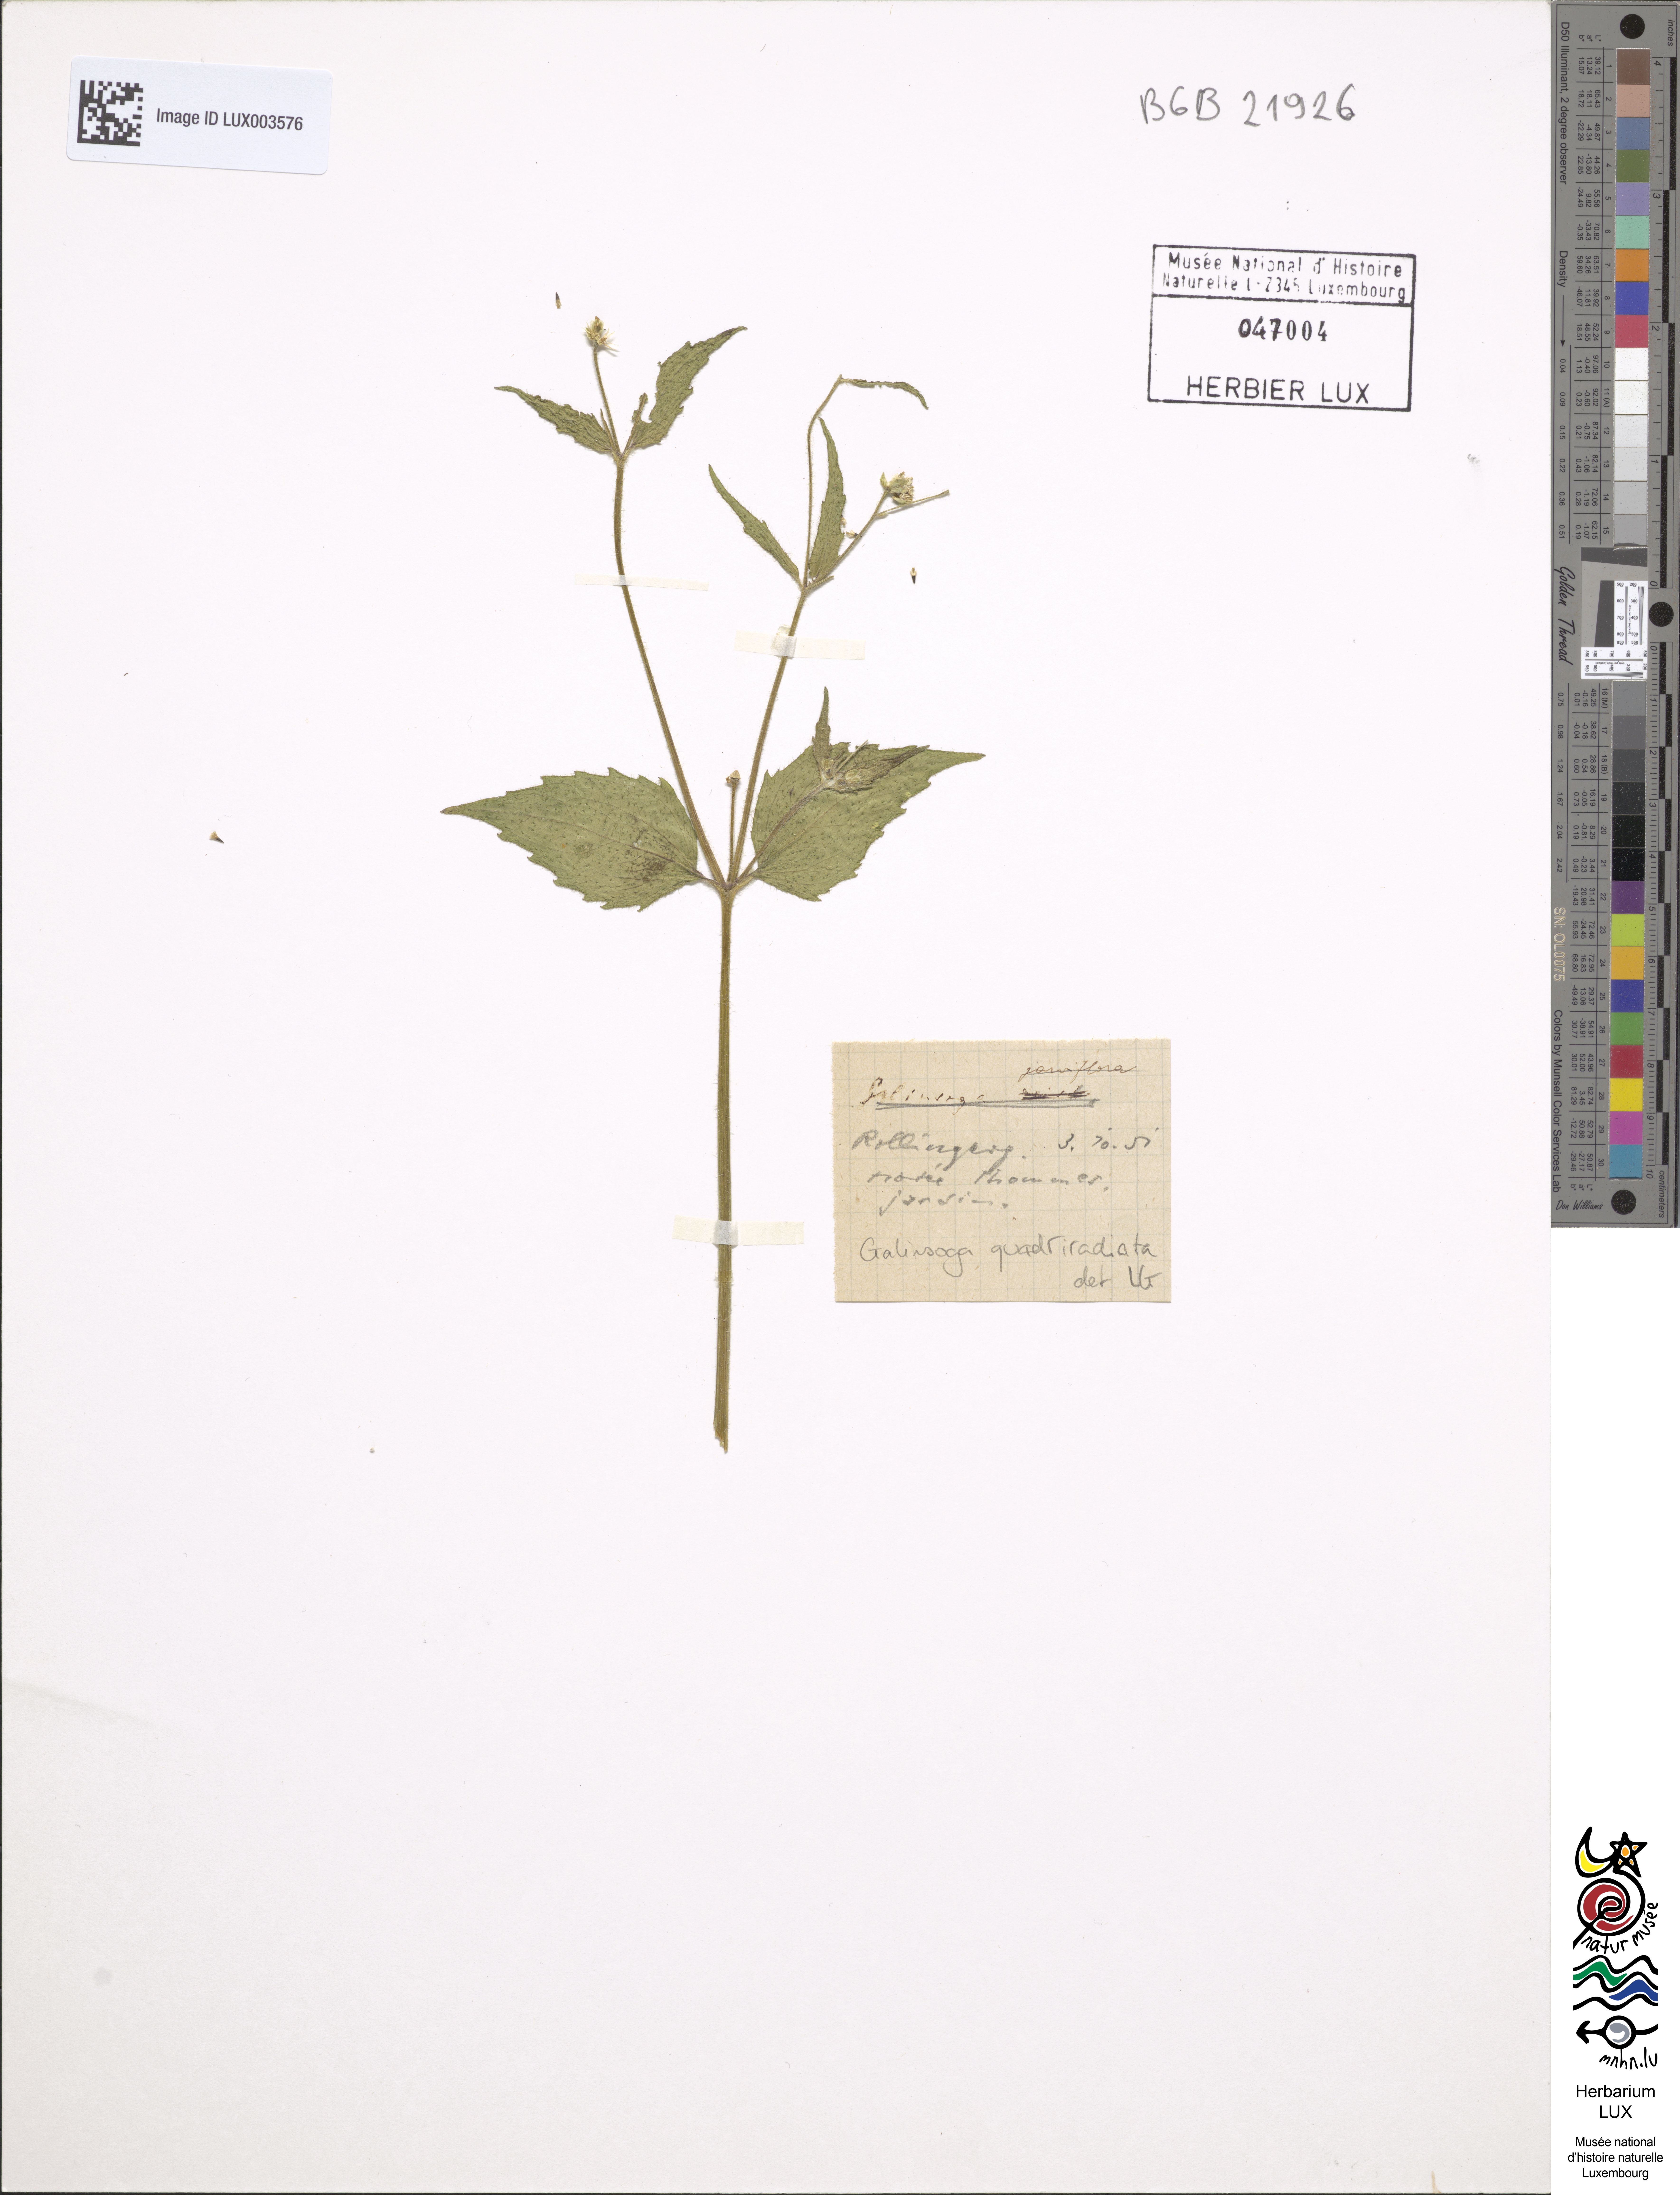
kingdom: Plantae
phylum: Tracheophyta
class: Magnoliopsida
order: Asterales
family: Asteraceae
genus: Galinsoga
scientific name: Galinsoga quadriradiata
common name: Shaggy soldier
